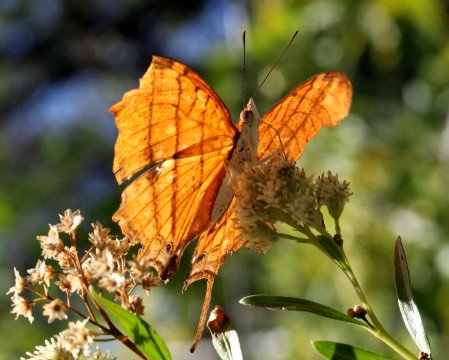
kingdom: Animalia
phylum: Arthropoda
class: Insecta
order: Lepidoptera
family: Nymphalidae
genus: Marpesia
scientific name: Marpesia petreus
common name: Ruddy Daggerwing
